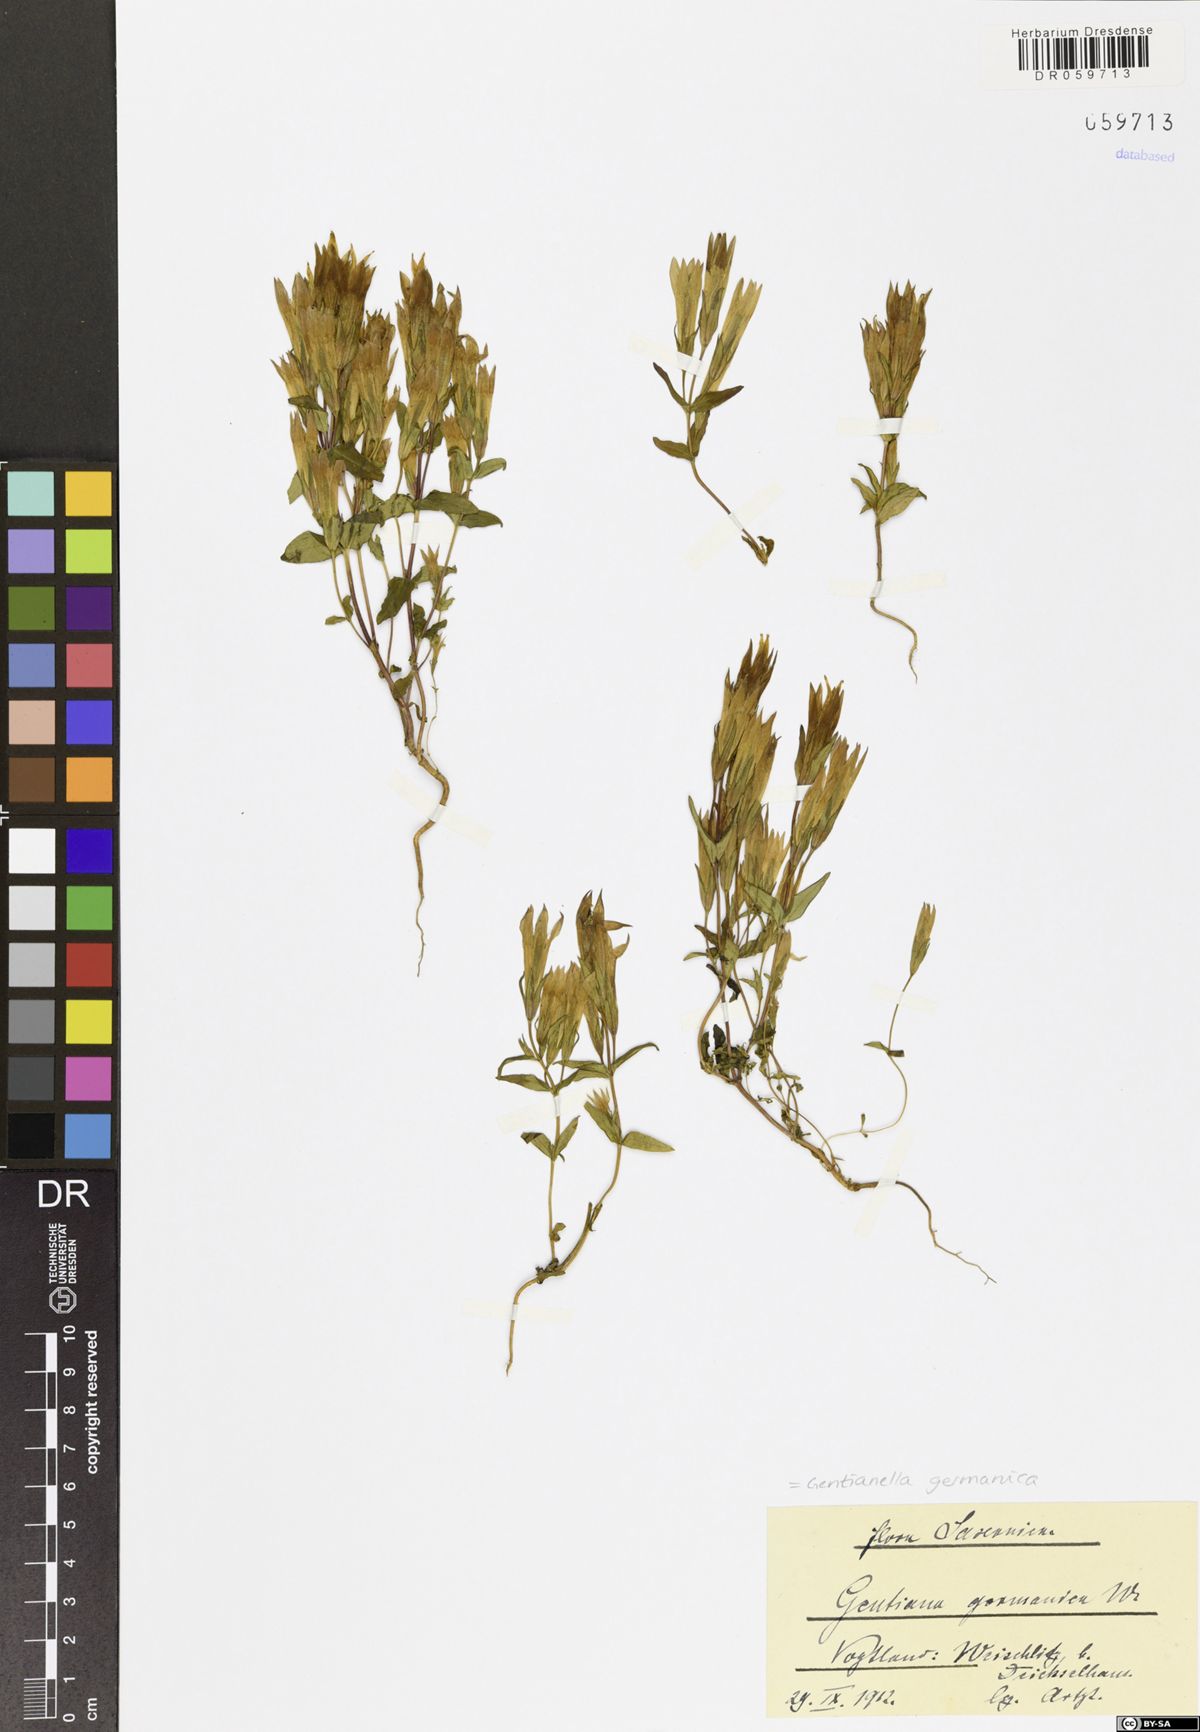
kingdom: Plantae
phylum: Tracheophyta
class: Magnoliopsida
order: Gentianales
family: Gentianaceae
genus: Gentianella
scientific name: Gentianella germanica
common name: Chiltern-gentian
